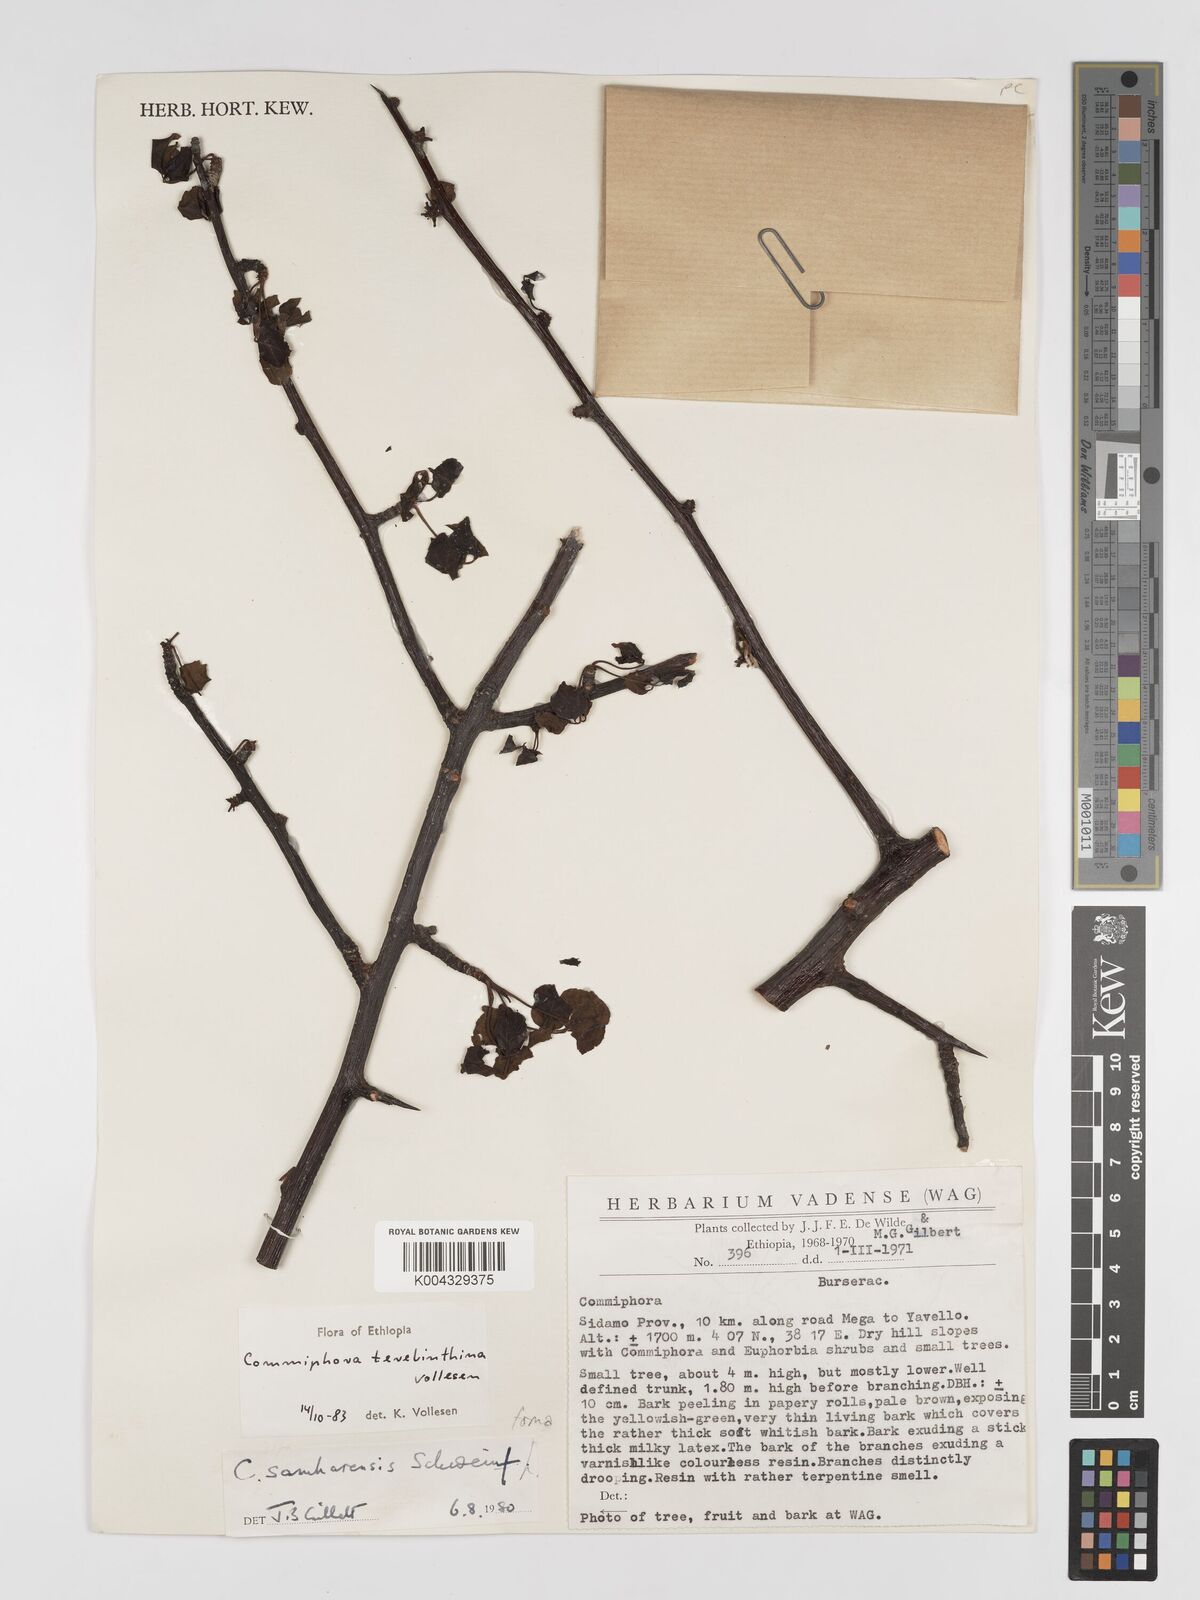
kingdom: Plantae
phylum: Tracheophyta
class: Magnoliopsida
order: Sapindales
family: Burseraceae
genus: Commiphora
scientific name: Commiphora samharensis
